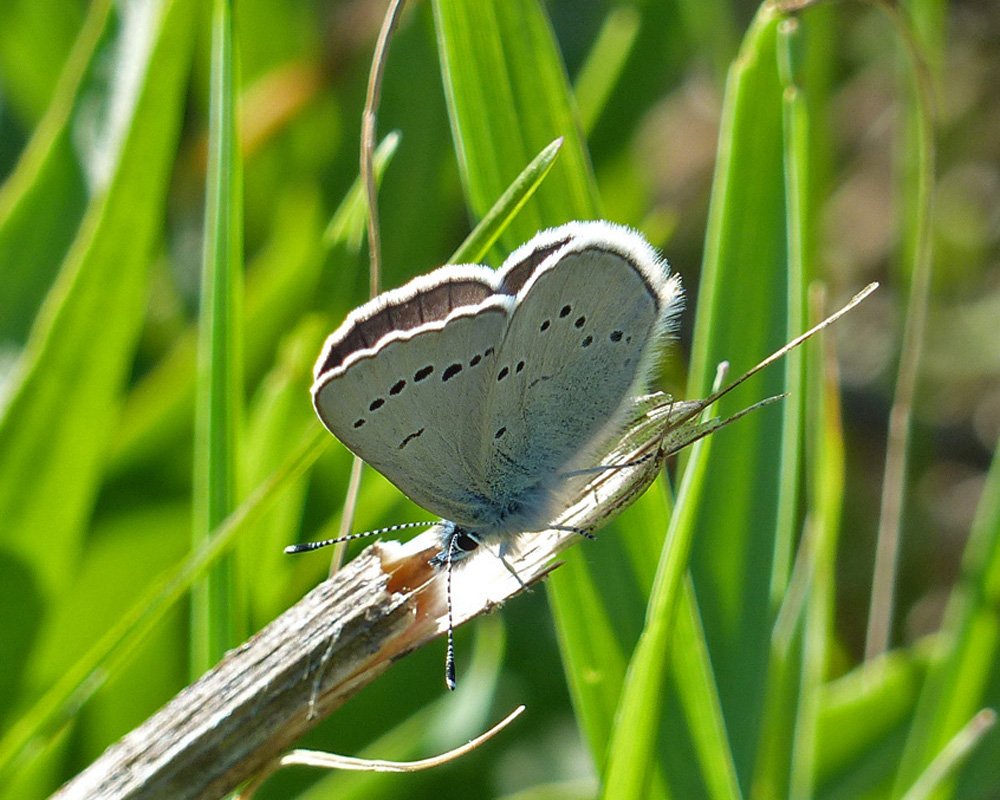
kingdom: Animalia
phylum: Arthropoda
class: Insecta
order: Lepidoptera
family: Lycaenidae
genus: Glaucopsyche
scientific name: Glaucopsyche lygdamus
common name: Silvery Blue
